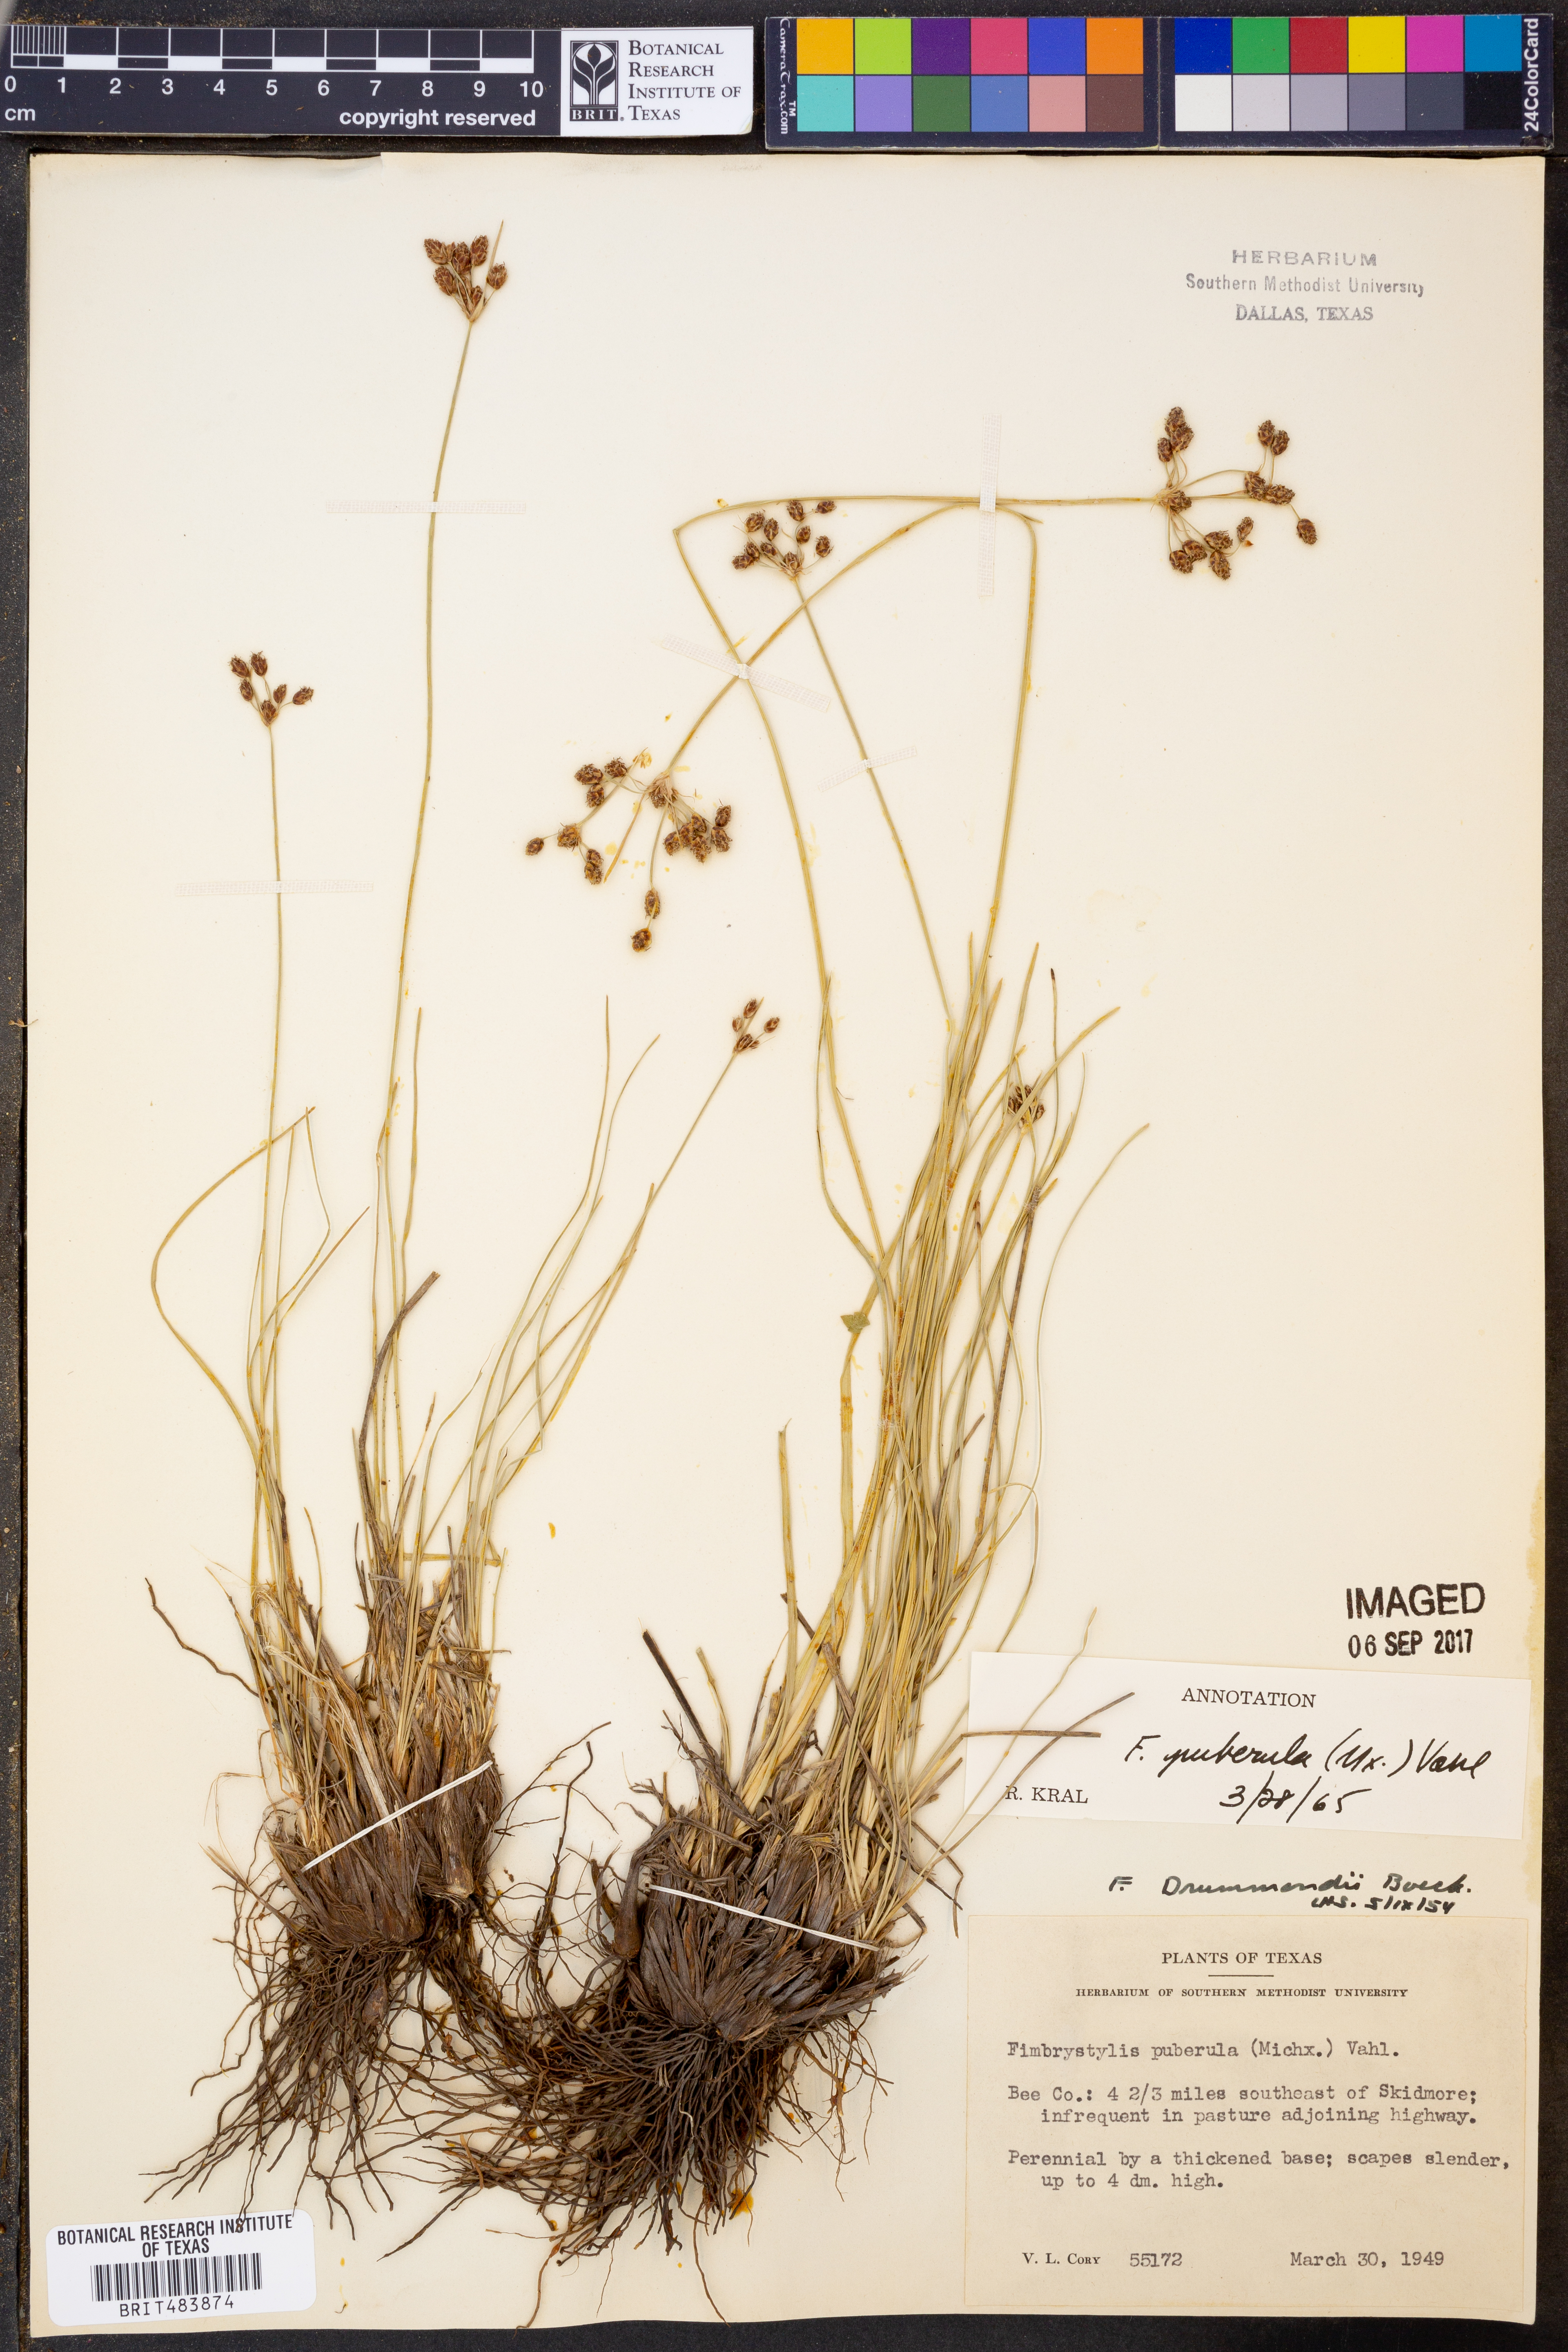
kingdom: Plantae
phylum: Tracheophyta
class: Liliopsida
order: Poales
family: Cyperaceae
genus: Fimbristylis
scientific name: Fimbristylis puberula
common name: Hairy fimbristylis
